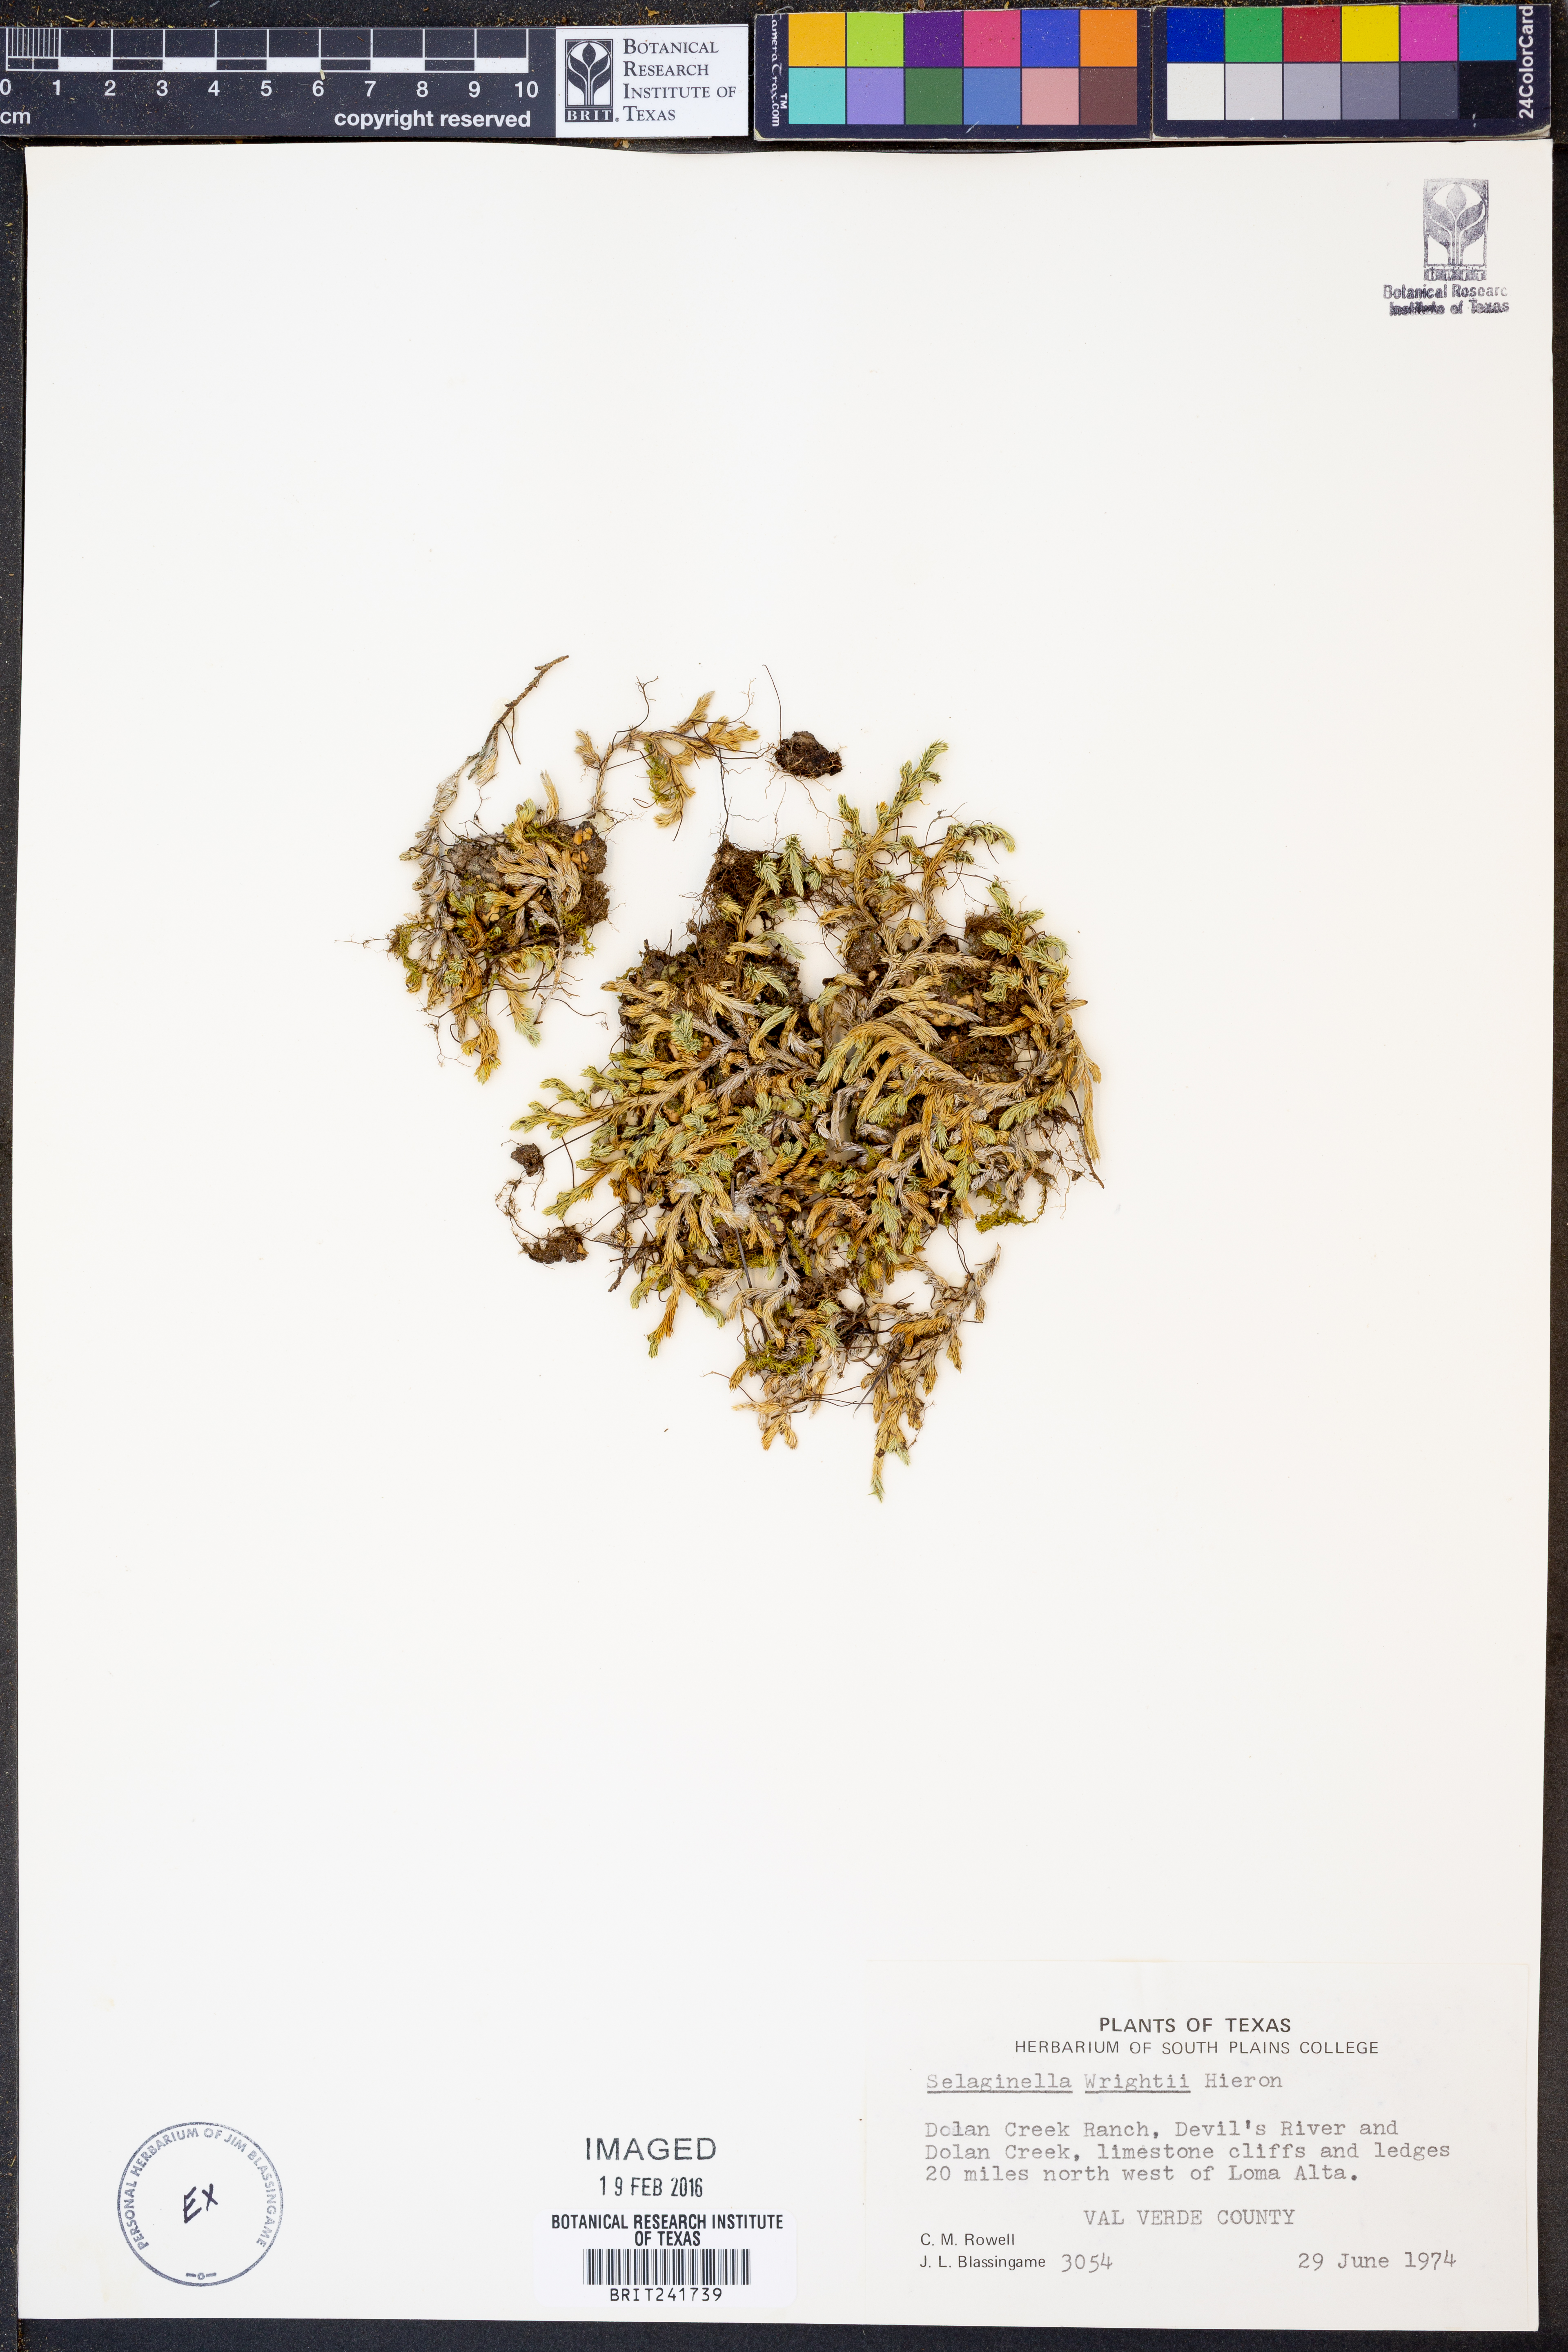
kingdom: Plantae
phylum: Tracheophyta
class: Lycopodiopsida
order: Selaginellales
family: Selaginellaceae
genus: Selaginella
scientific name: Selaginella wrightii
